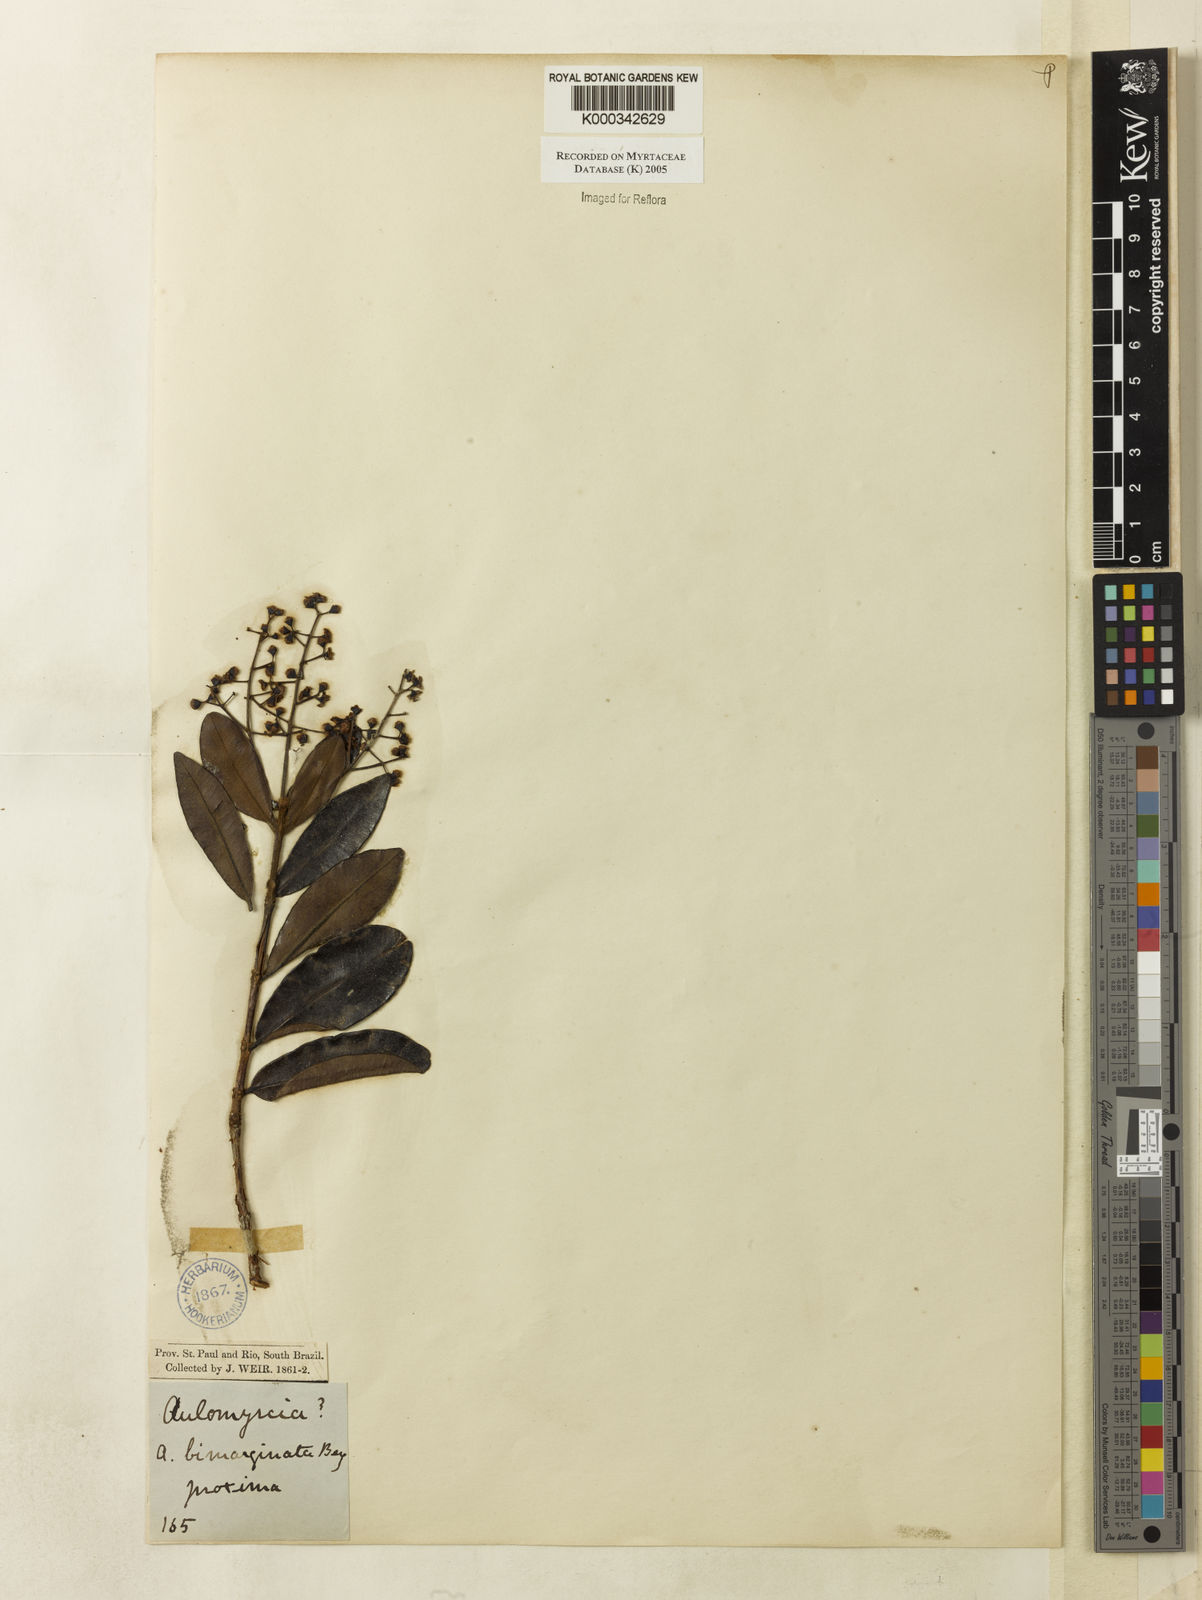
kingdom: Plantae
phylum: Tracheophyta
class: Magnoliopsida
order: Myrtales
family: Myrtaceae
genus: Myrcia
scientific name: Myrcia guianensis
